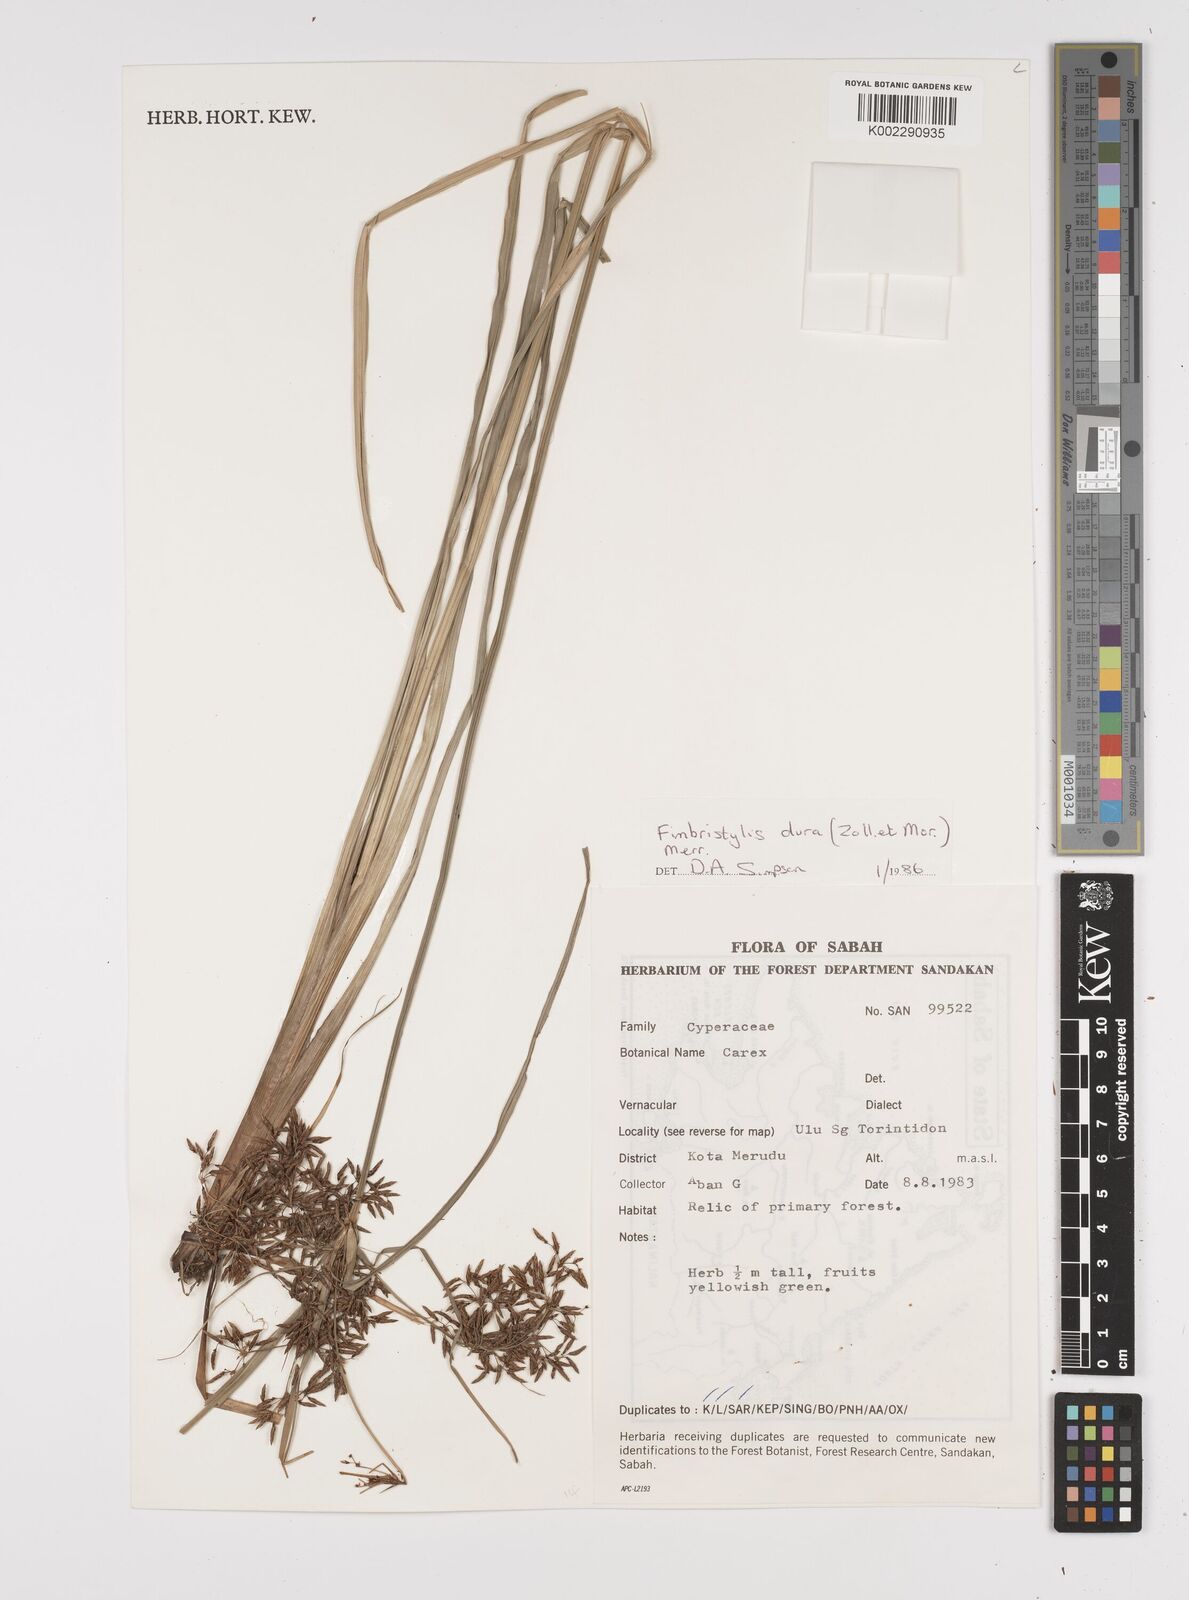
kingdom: Plantae
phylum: Tracheophyta
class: Liliopsida
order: Poales
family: Cyperaceae
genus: Fimbristylis
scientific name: Fimbristylis dura
